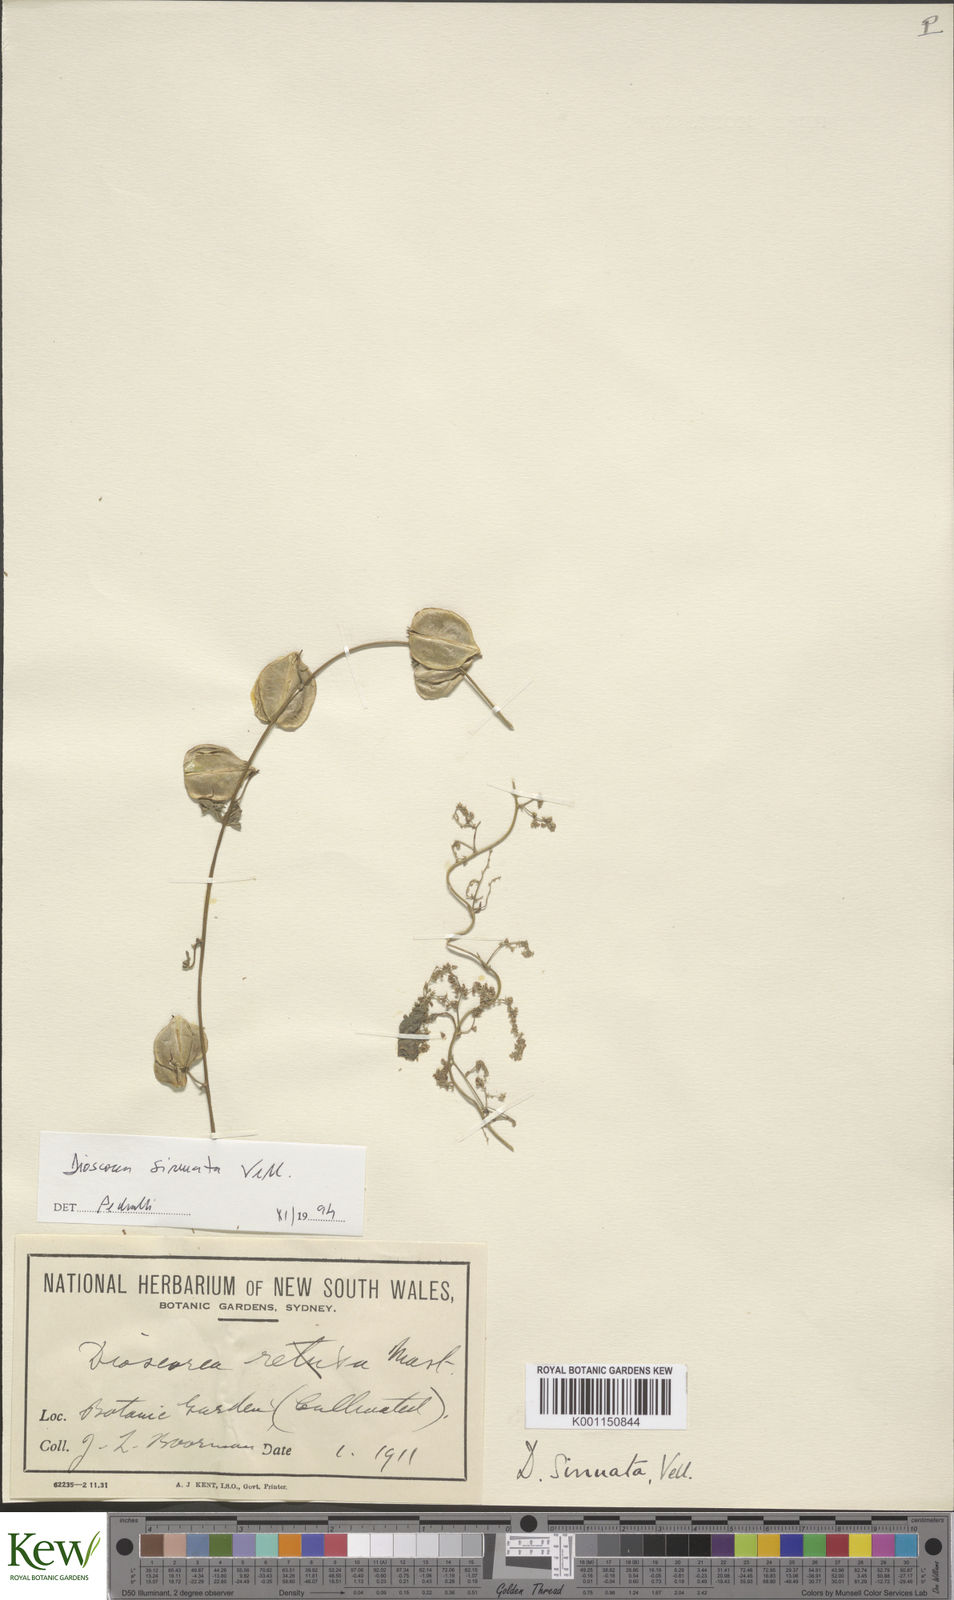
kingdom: Plantae
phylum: Tracheophyta
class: Liliopsida
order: Dioscoreales
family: Dioscoreaceae
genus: Dioscorea
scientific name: Dioscorea sinuata
